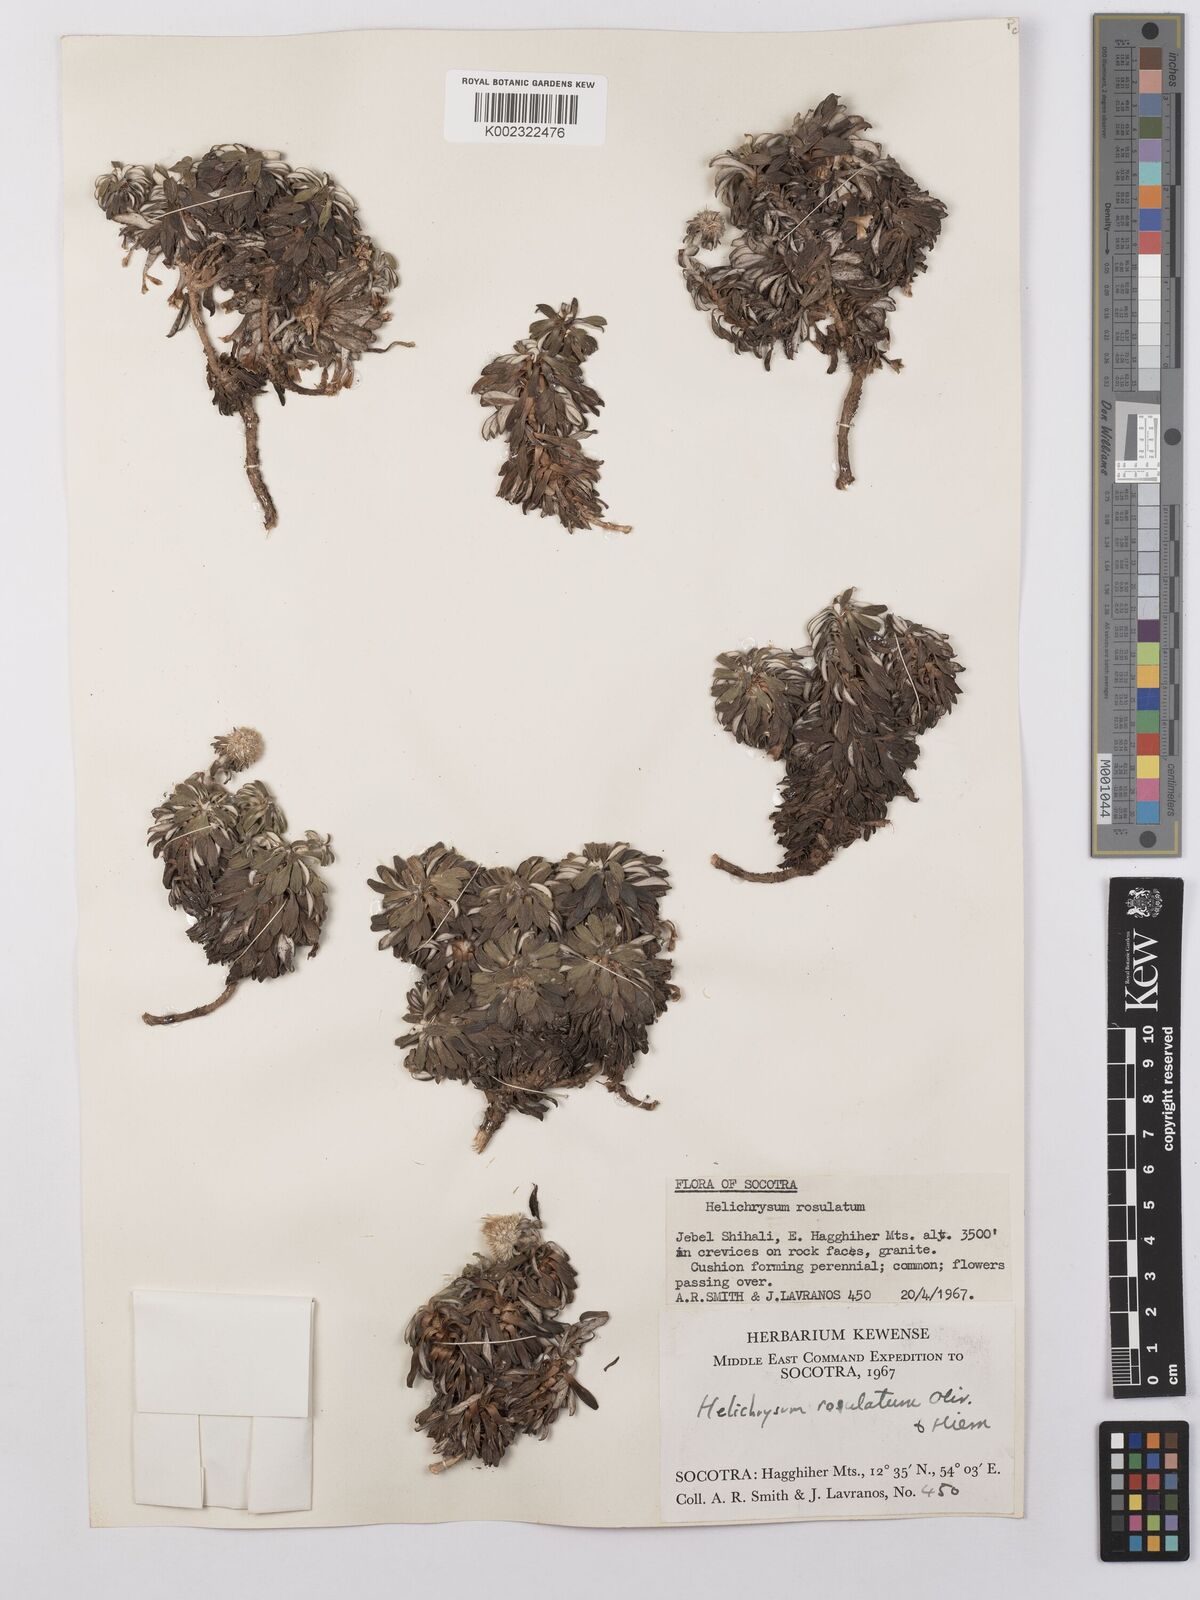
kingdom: Plantae
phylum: Tracheophyta
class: Magnoliopsida
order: Asterales
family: Asteraceae
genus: Libinhania
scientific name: Libinhania rosulata
